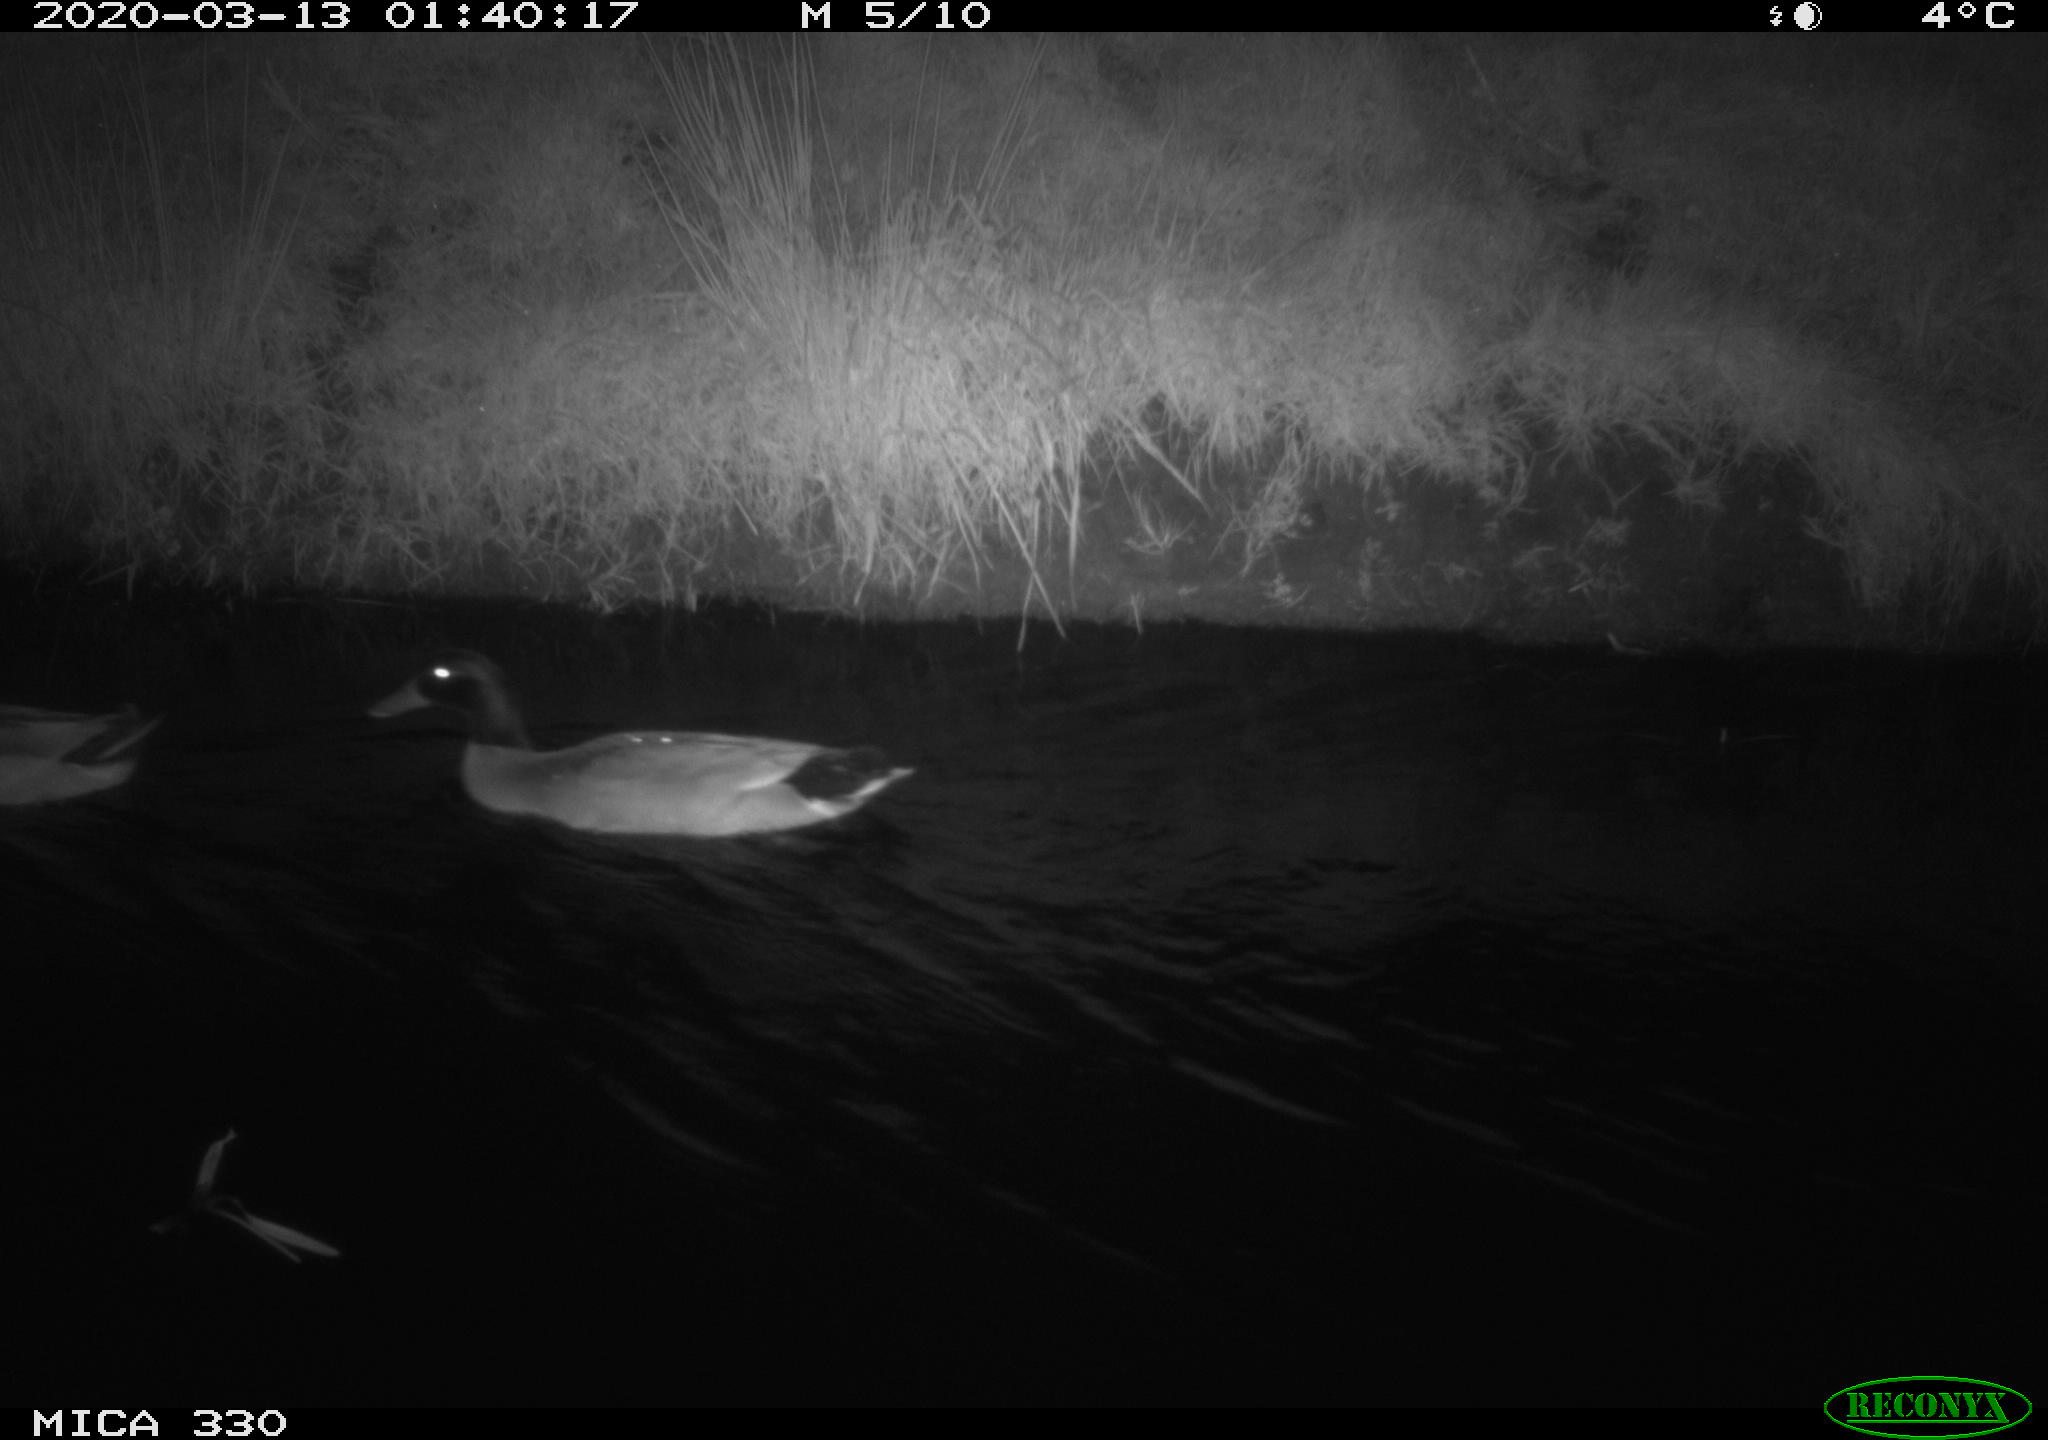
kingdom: Animalia
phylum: Chordata
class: Aves
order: Anseriformes
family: Anatidae
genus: Anas
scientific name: Anas platyrhynchos
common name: Mallard
